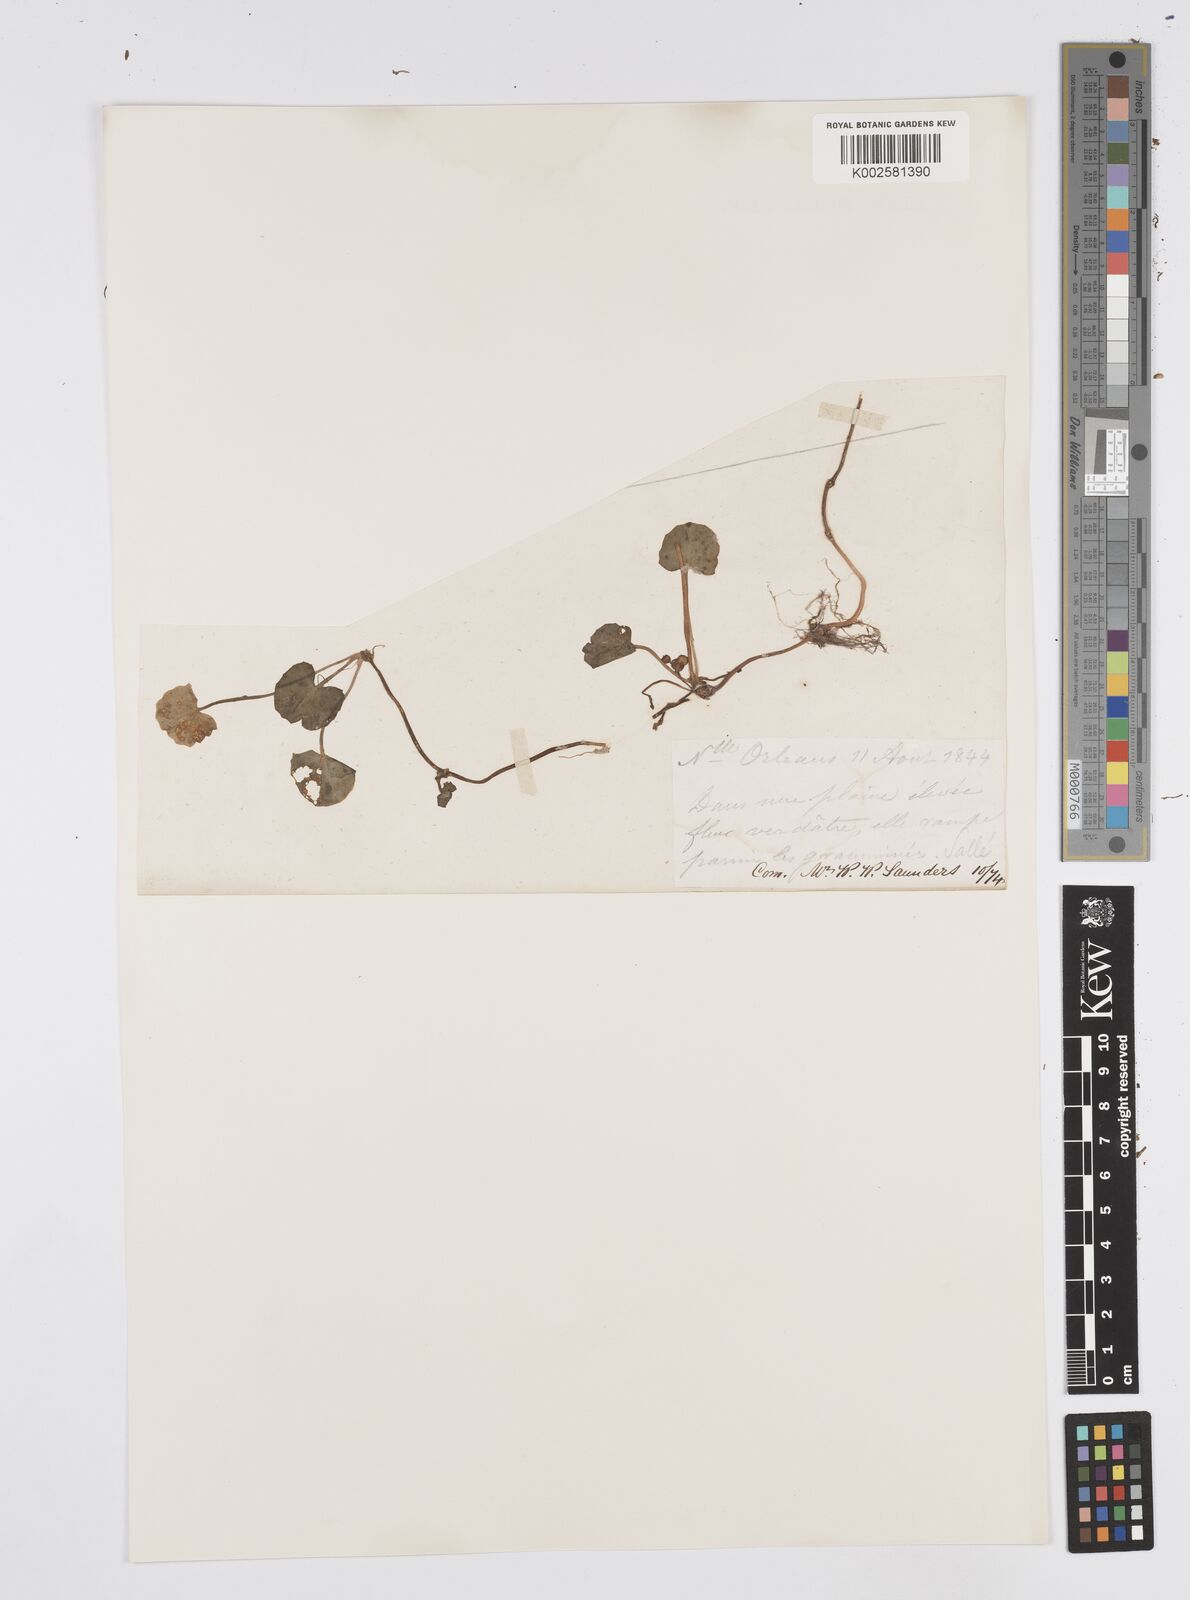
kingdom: Plantae
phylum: Tracheophyta
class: Magnoliopsida
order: Apiales
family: Apiaceae
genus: Centella
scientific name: Centella erecta
